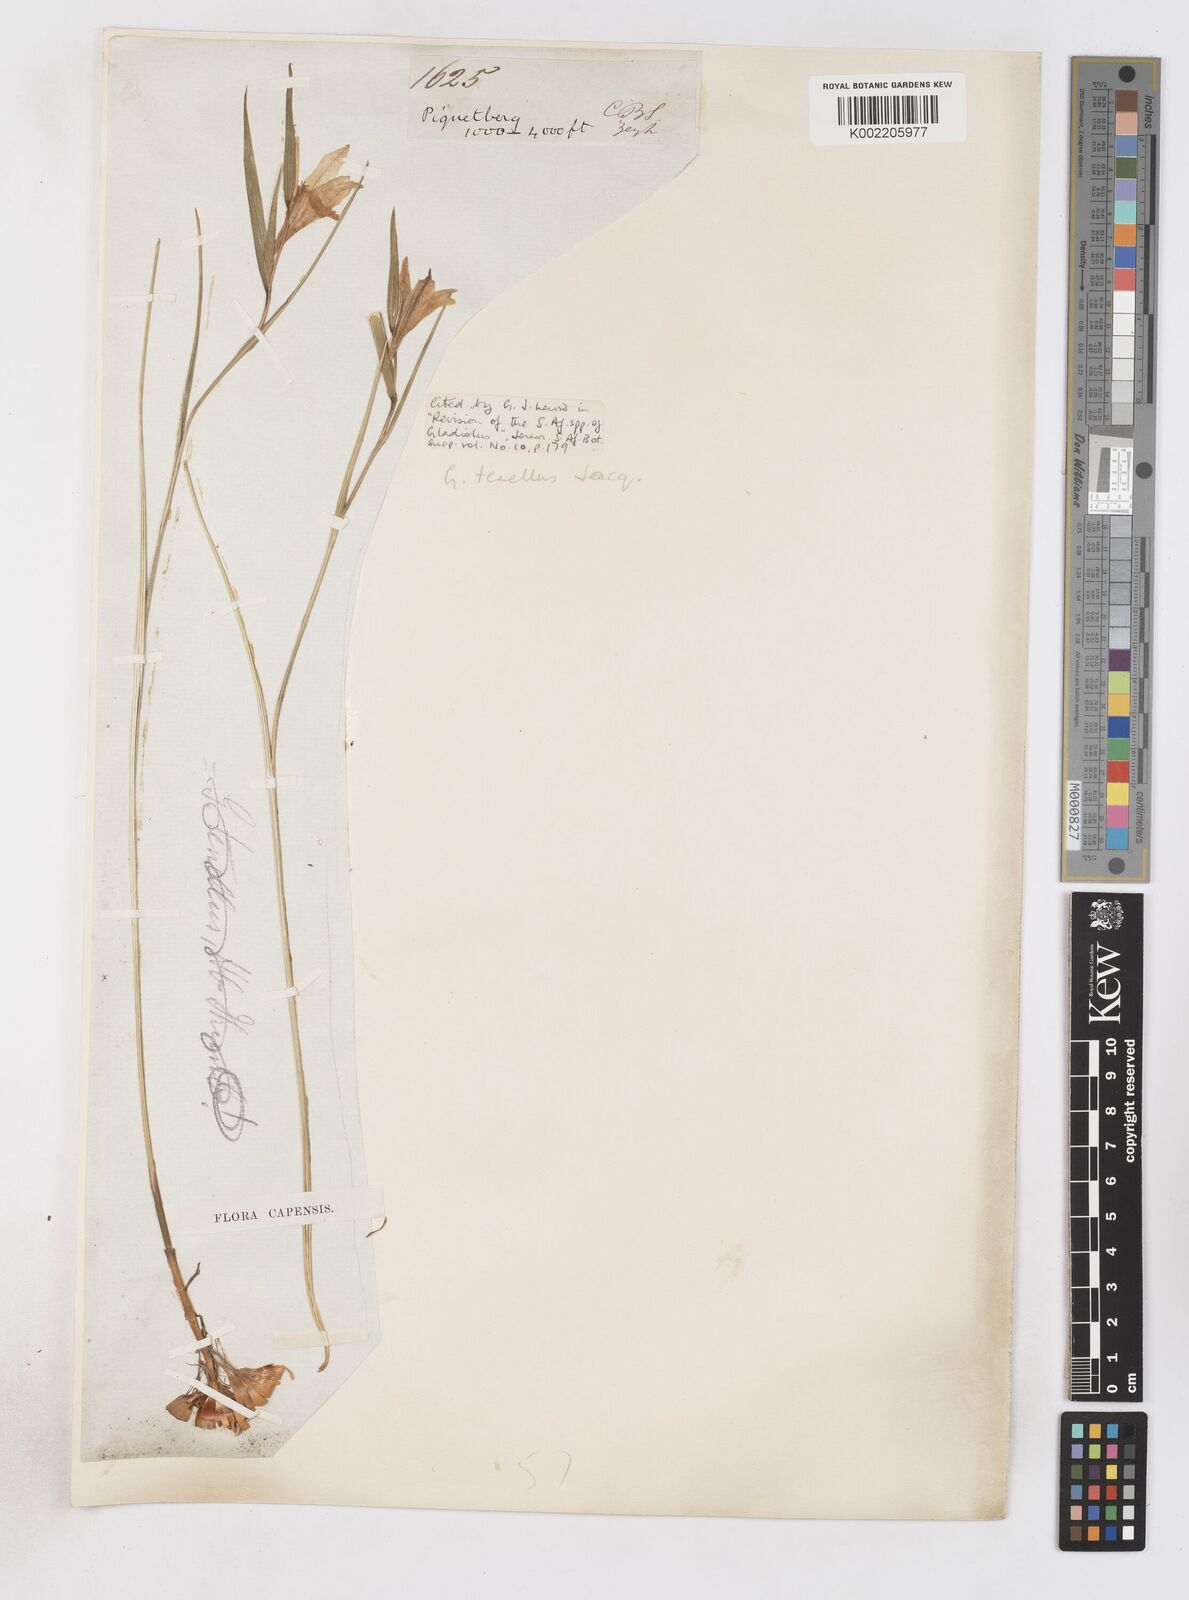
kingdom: Plantae
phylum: Tracheophyta
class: Liliopsida
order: Asparagales
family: Iridaceae
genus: Gladiolus
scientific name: Gladiolus carinatus
